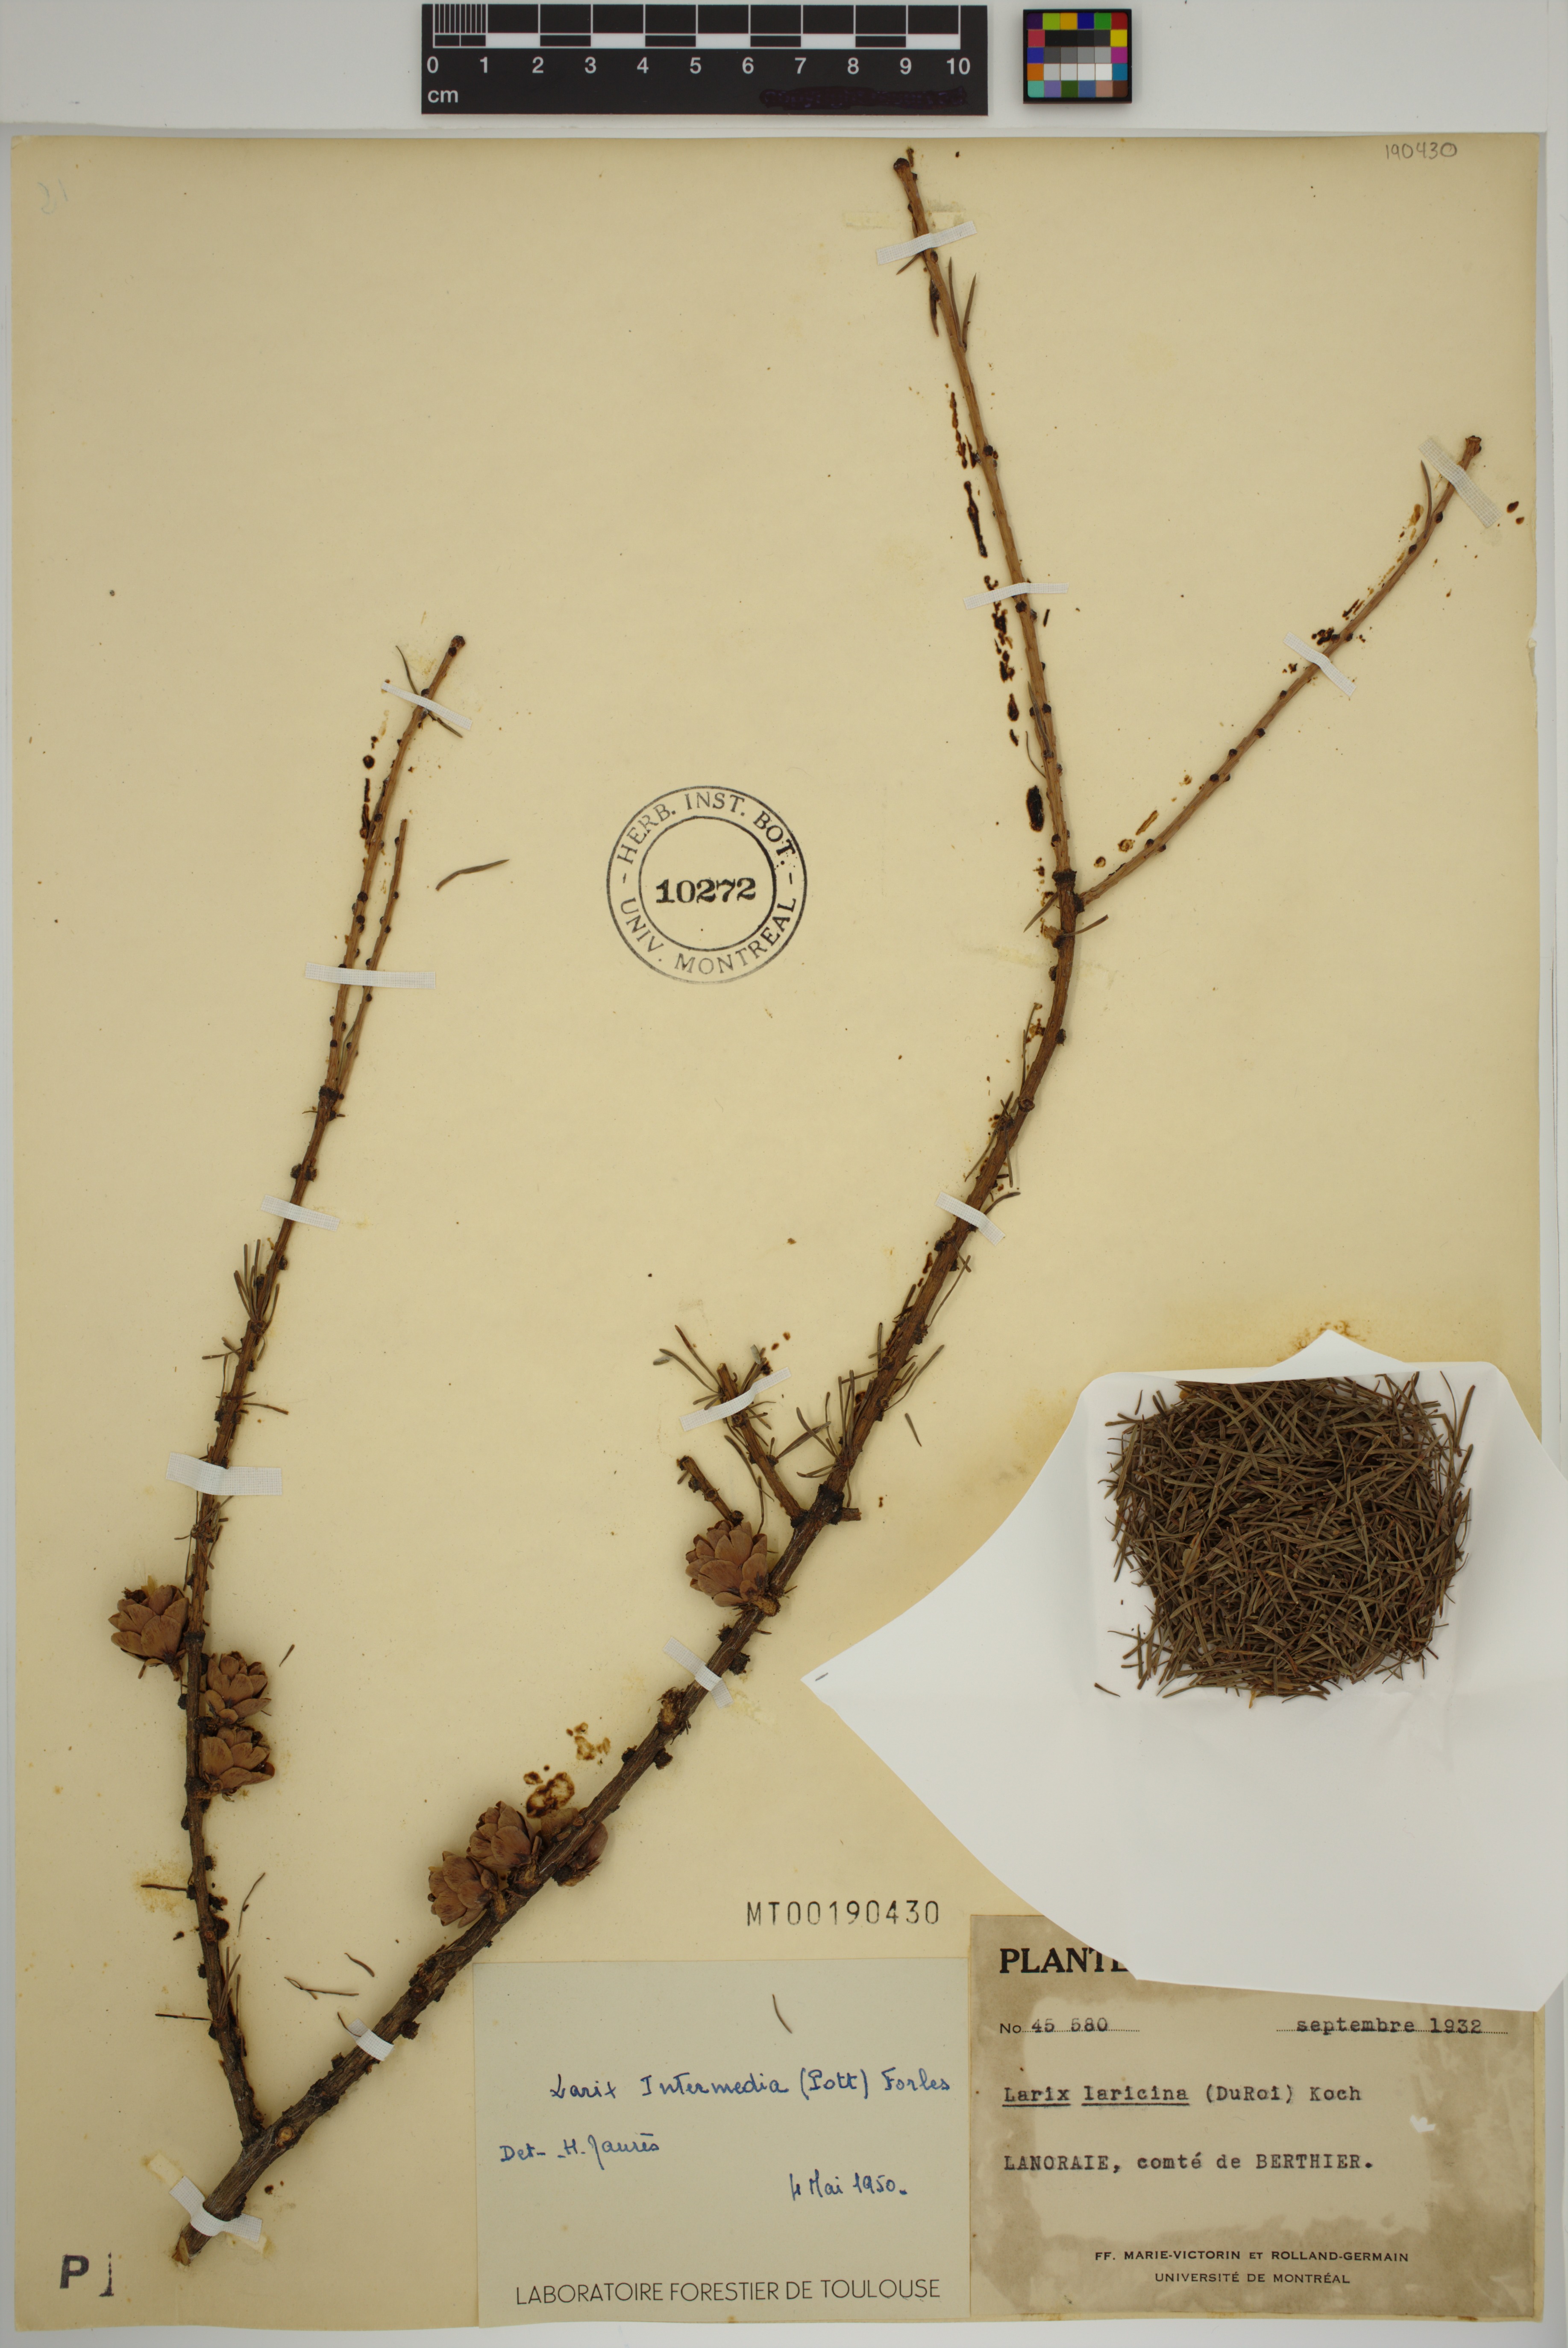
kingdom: Plantae
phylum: Tracheophyta
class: Pinopsida
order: Pinales
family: Pinaceae
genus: Larix
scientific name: Larix laricina
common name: American larch
